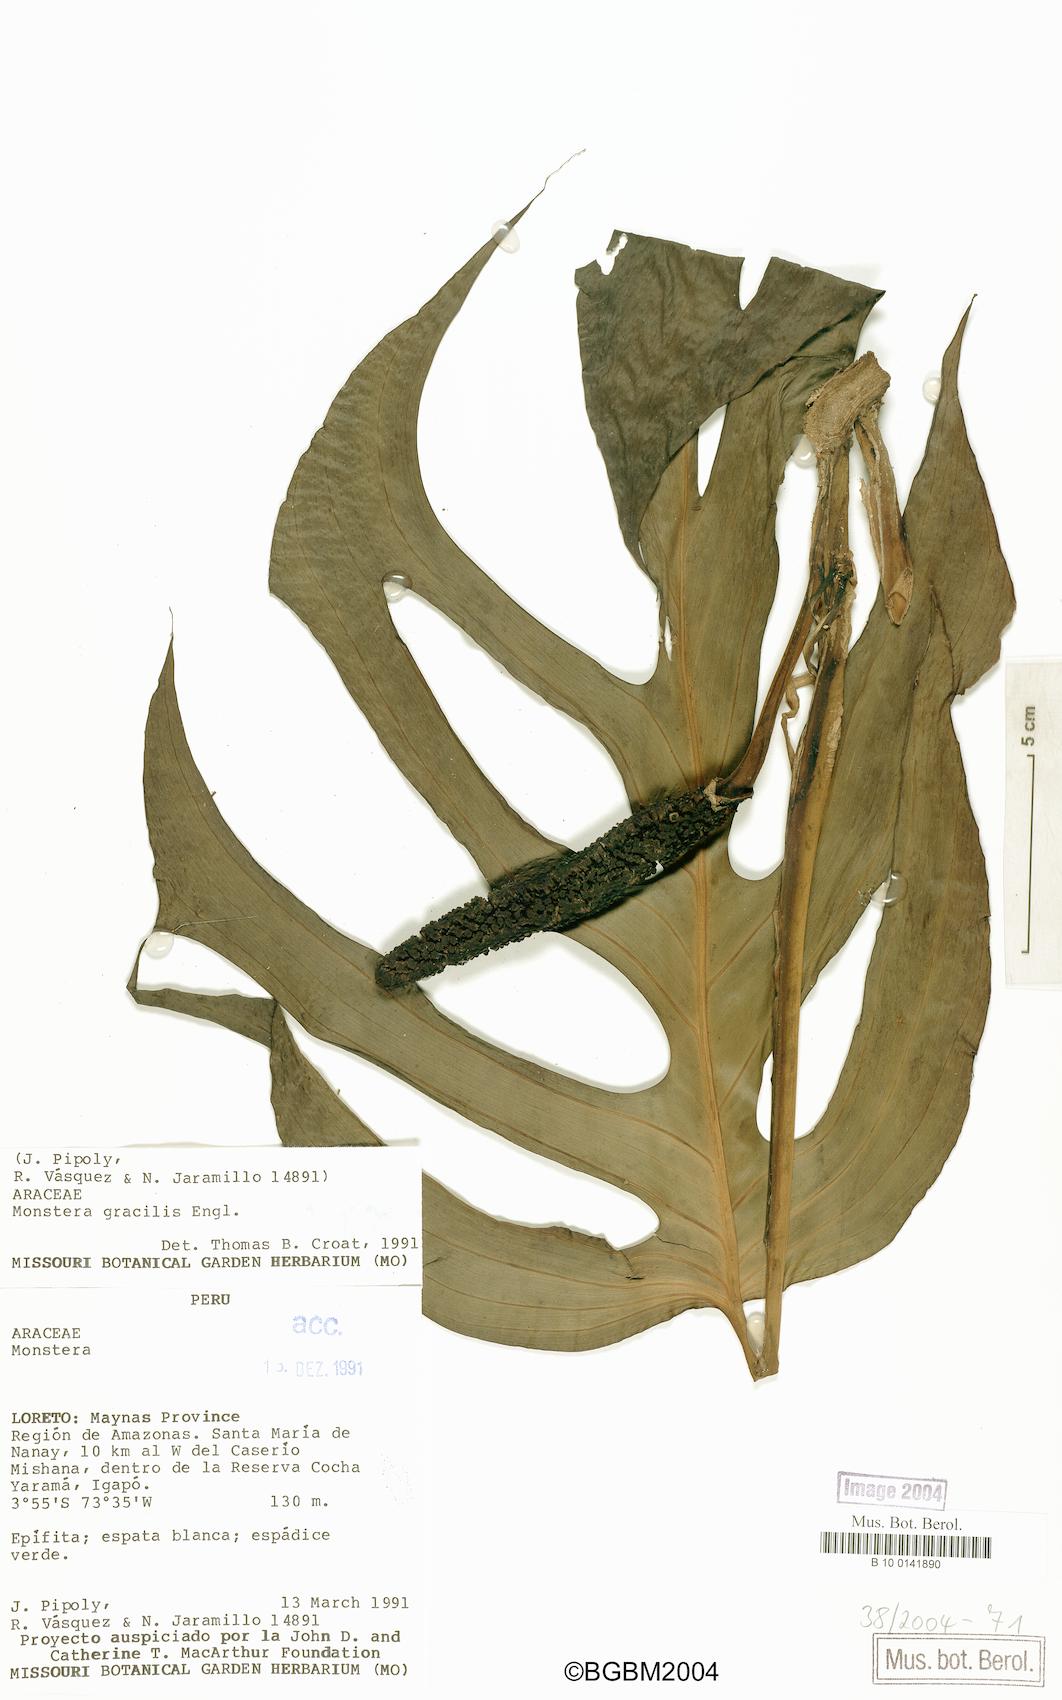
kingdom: Plantae
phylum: Tracheophyta
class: Liliopsida
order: Alismatales
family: Araceae
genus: Monstera
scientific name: Monstera gracilis
